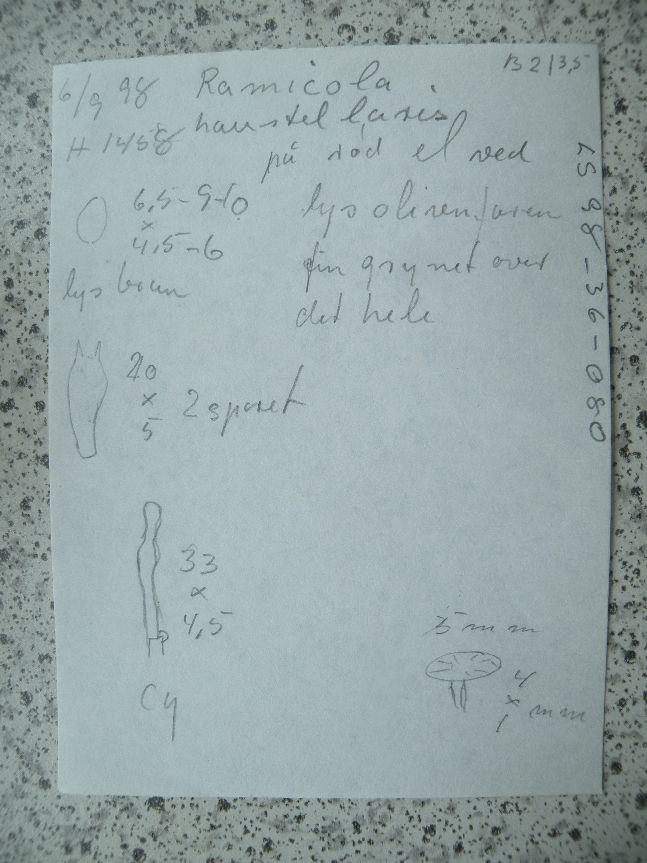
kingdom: Fungi
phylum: Basidiomycota
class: Agaricomycetes
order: Agaricales
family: Crepidotaceae
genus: Simocybe
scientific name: Simocybe haustellaris
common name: skæv skyggehat
